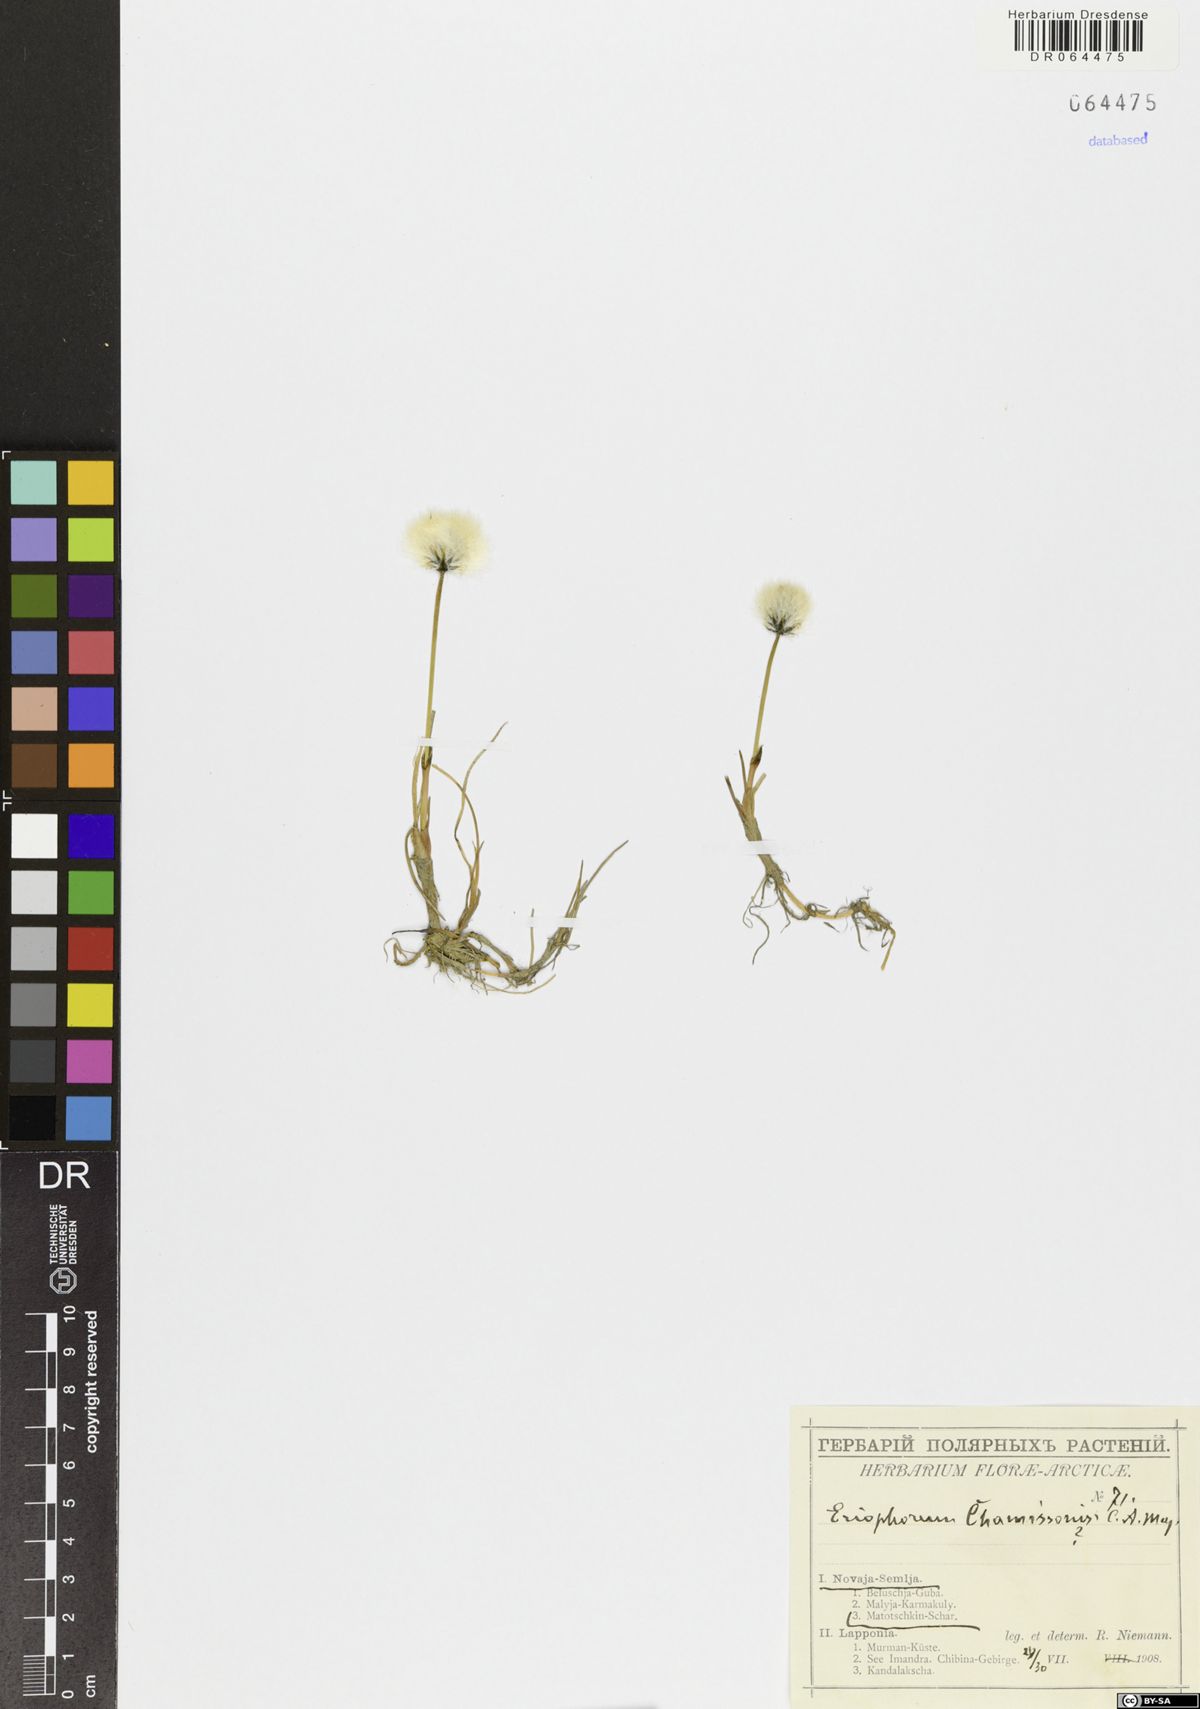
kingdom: Plantae
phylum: Tracheophyta
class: Liliopsida
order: Poales
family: Cyperaceae
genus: Eriophorum
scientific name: Eriophorum chamissonis
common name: Chamisso's cottongrass
